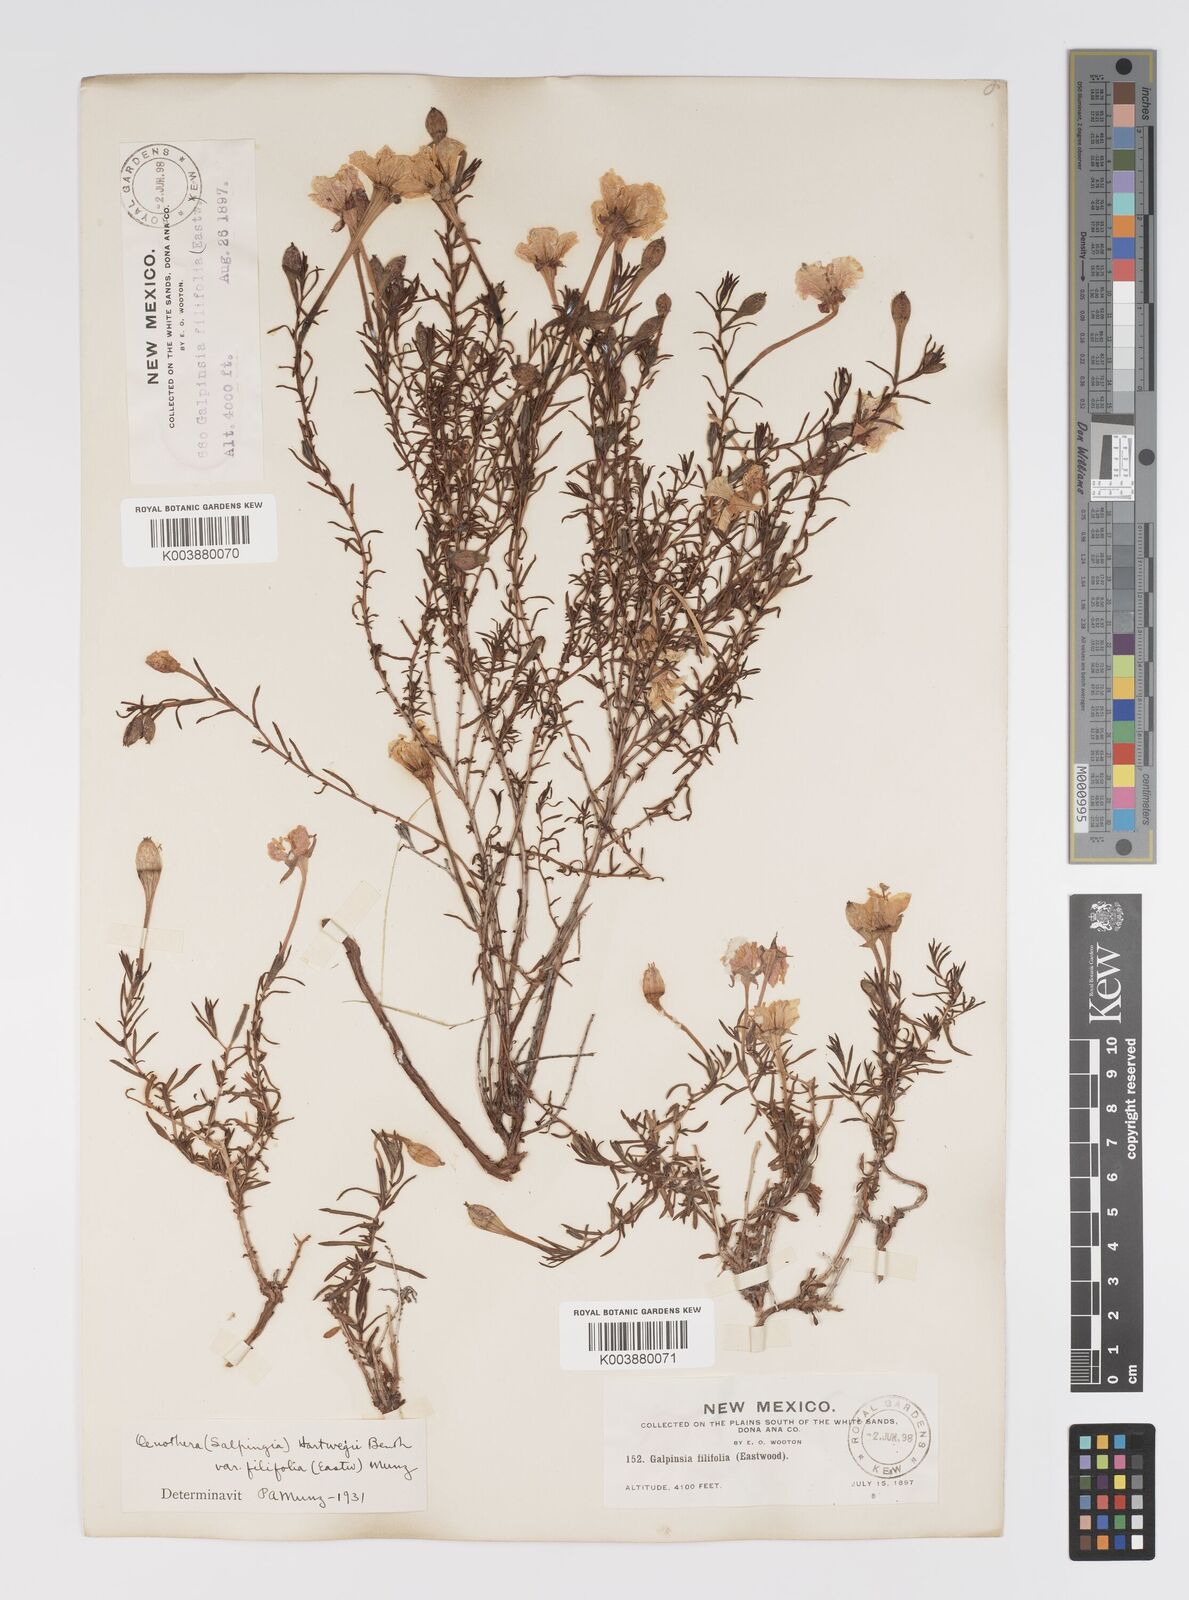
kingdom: Plantae
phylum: Tracheophyta
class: Magnoliopsida
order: Myrtales
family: Onagraceae
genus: Oenothera
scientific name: Oenothera hartwegii
